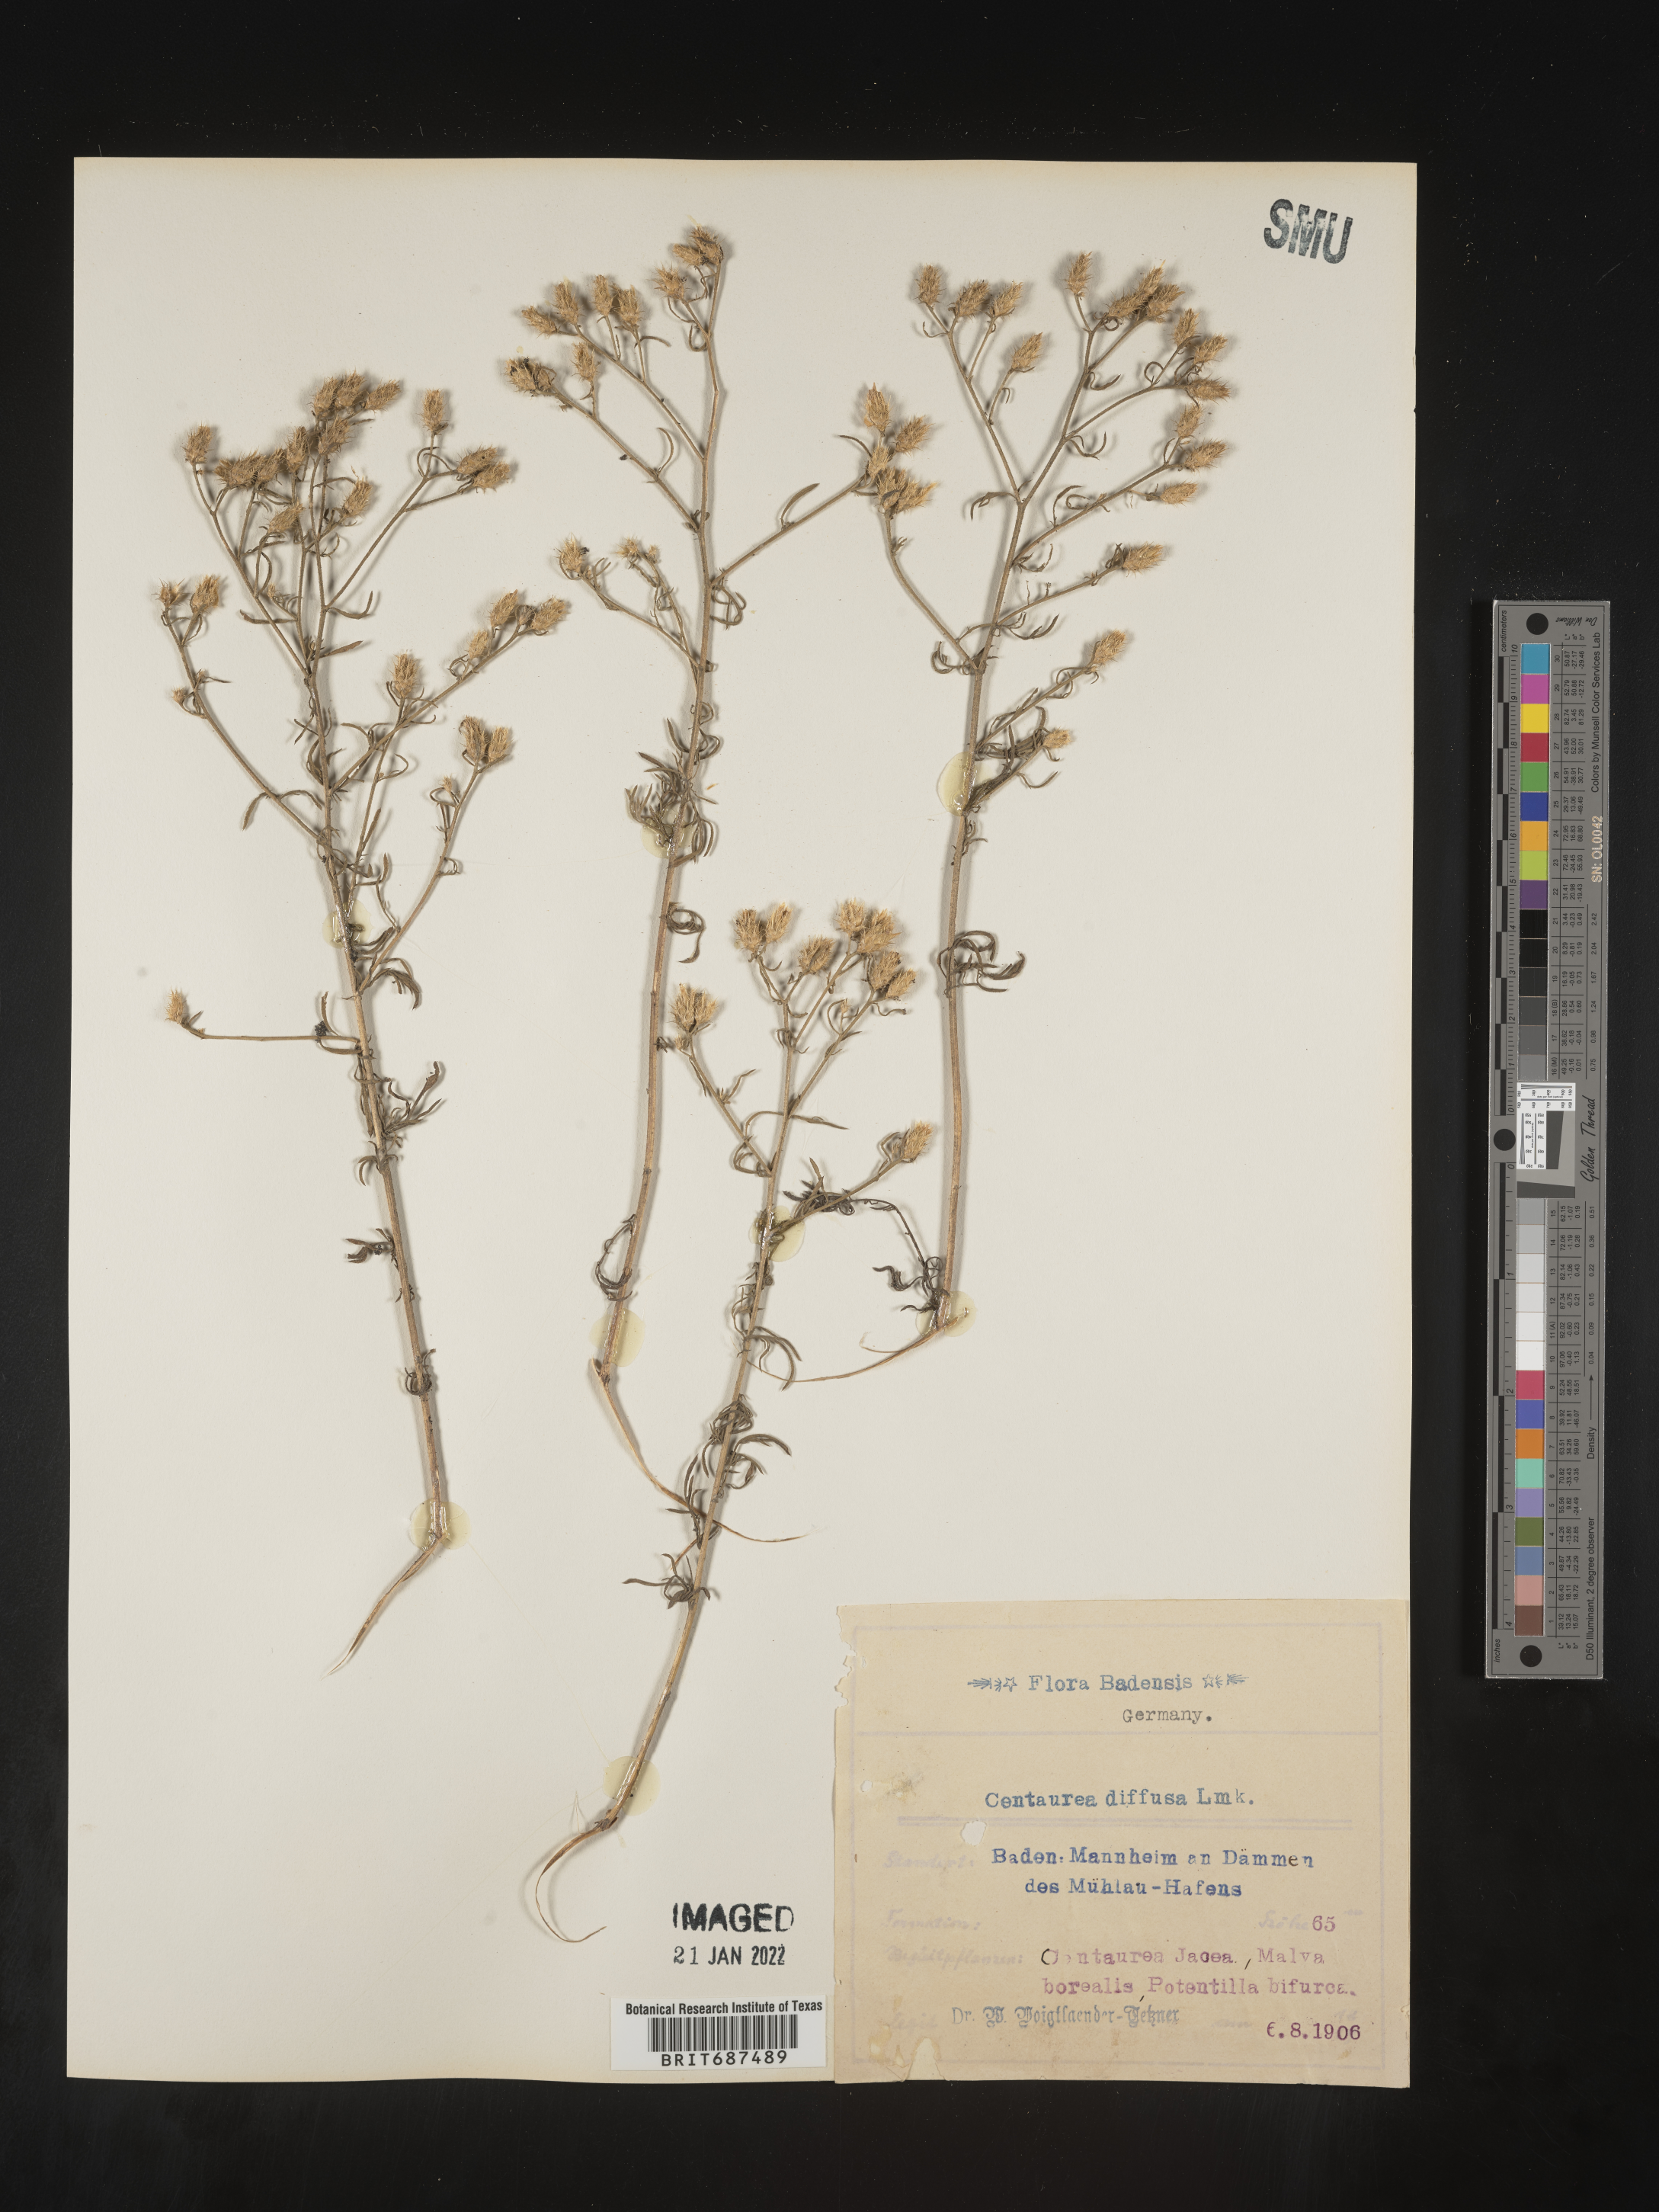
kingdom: Plantae
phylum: Tracheophyta
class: Magnoliopsida
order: Asterales
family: Asteraceae
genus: Centaurea
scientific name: Centaurea
